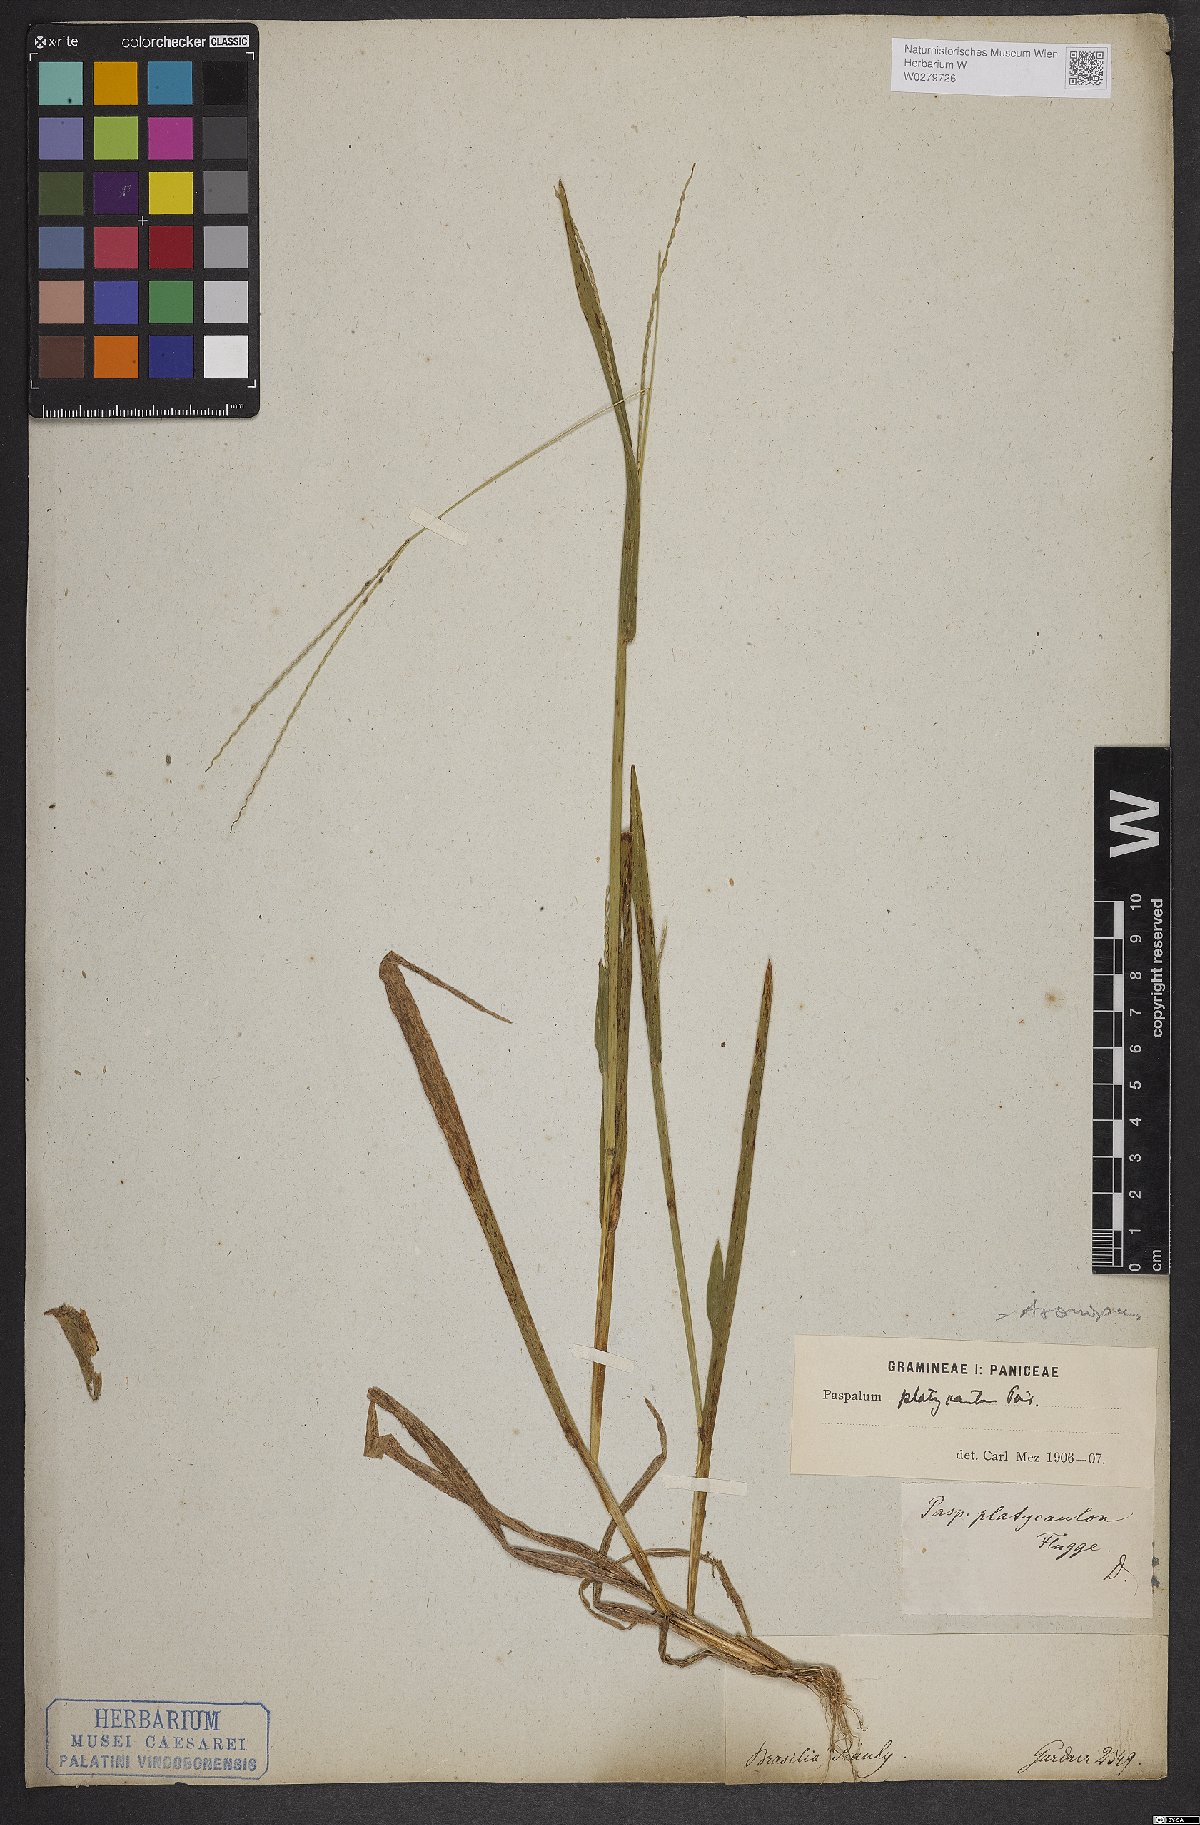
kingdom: Plantae
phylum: Tracheophyta
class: Liliopsida
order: Poales
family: Poaceae
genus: Axonopus
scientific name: Axonopus compressus
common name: American carpet grass
